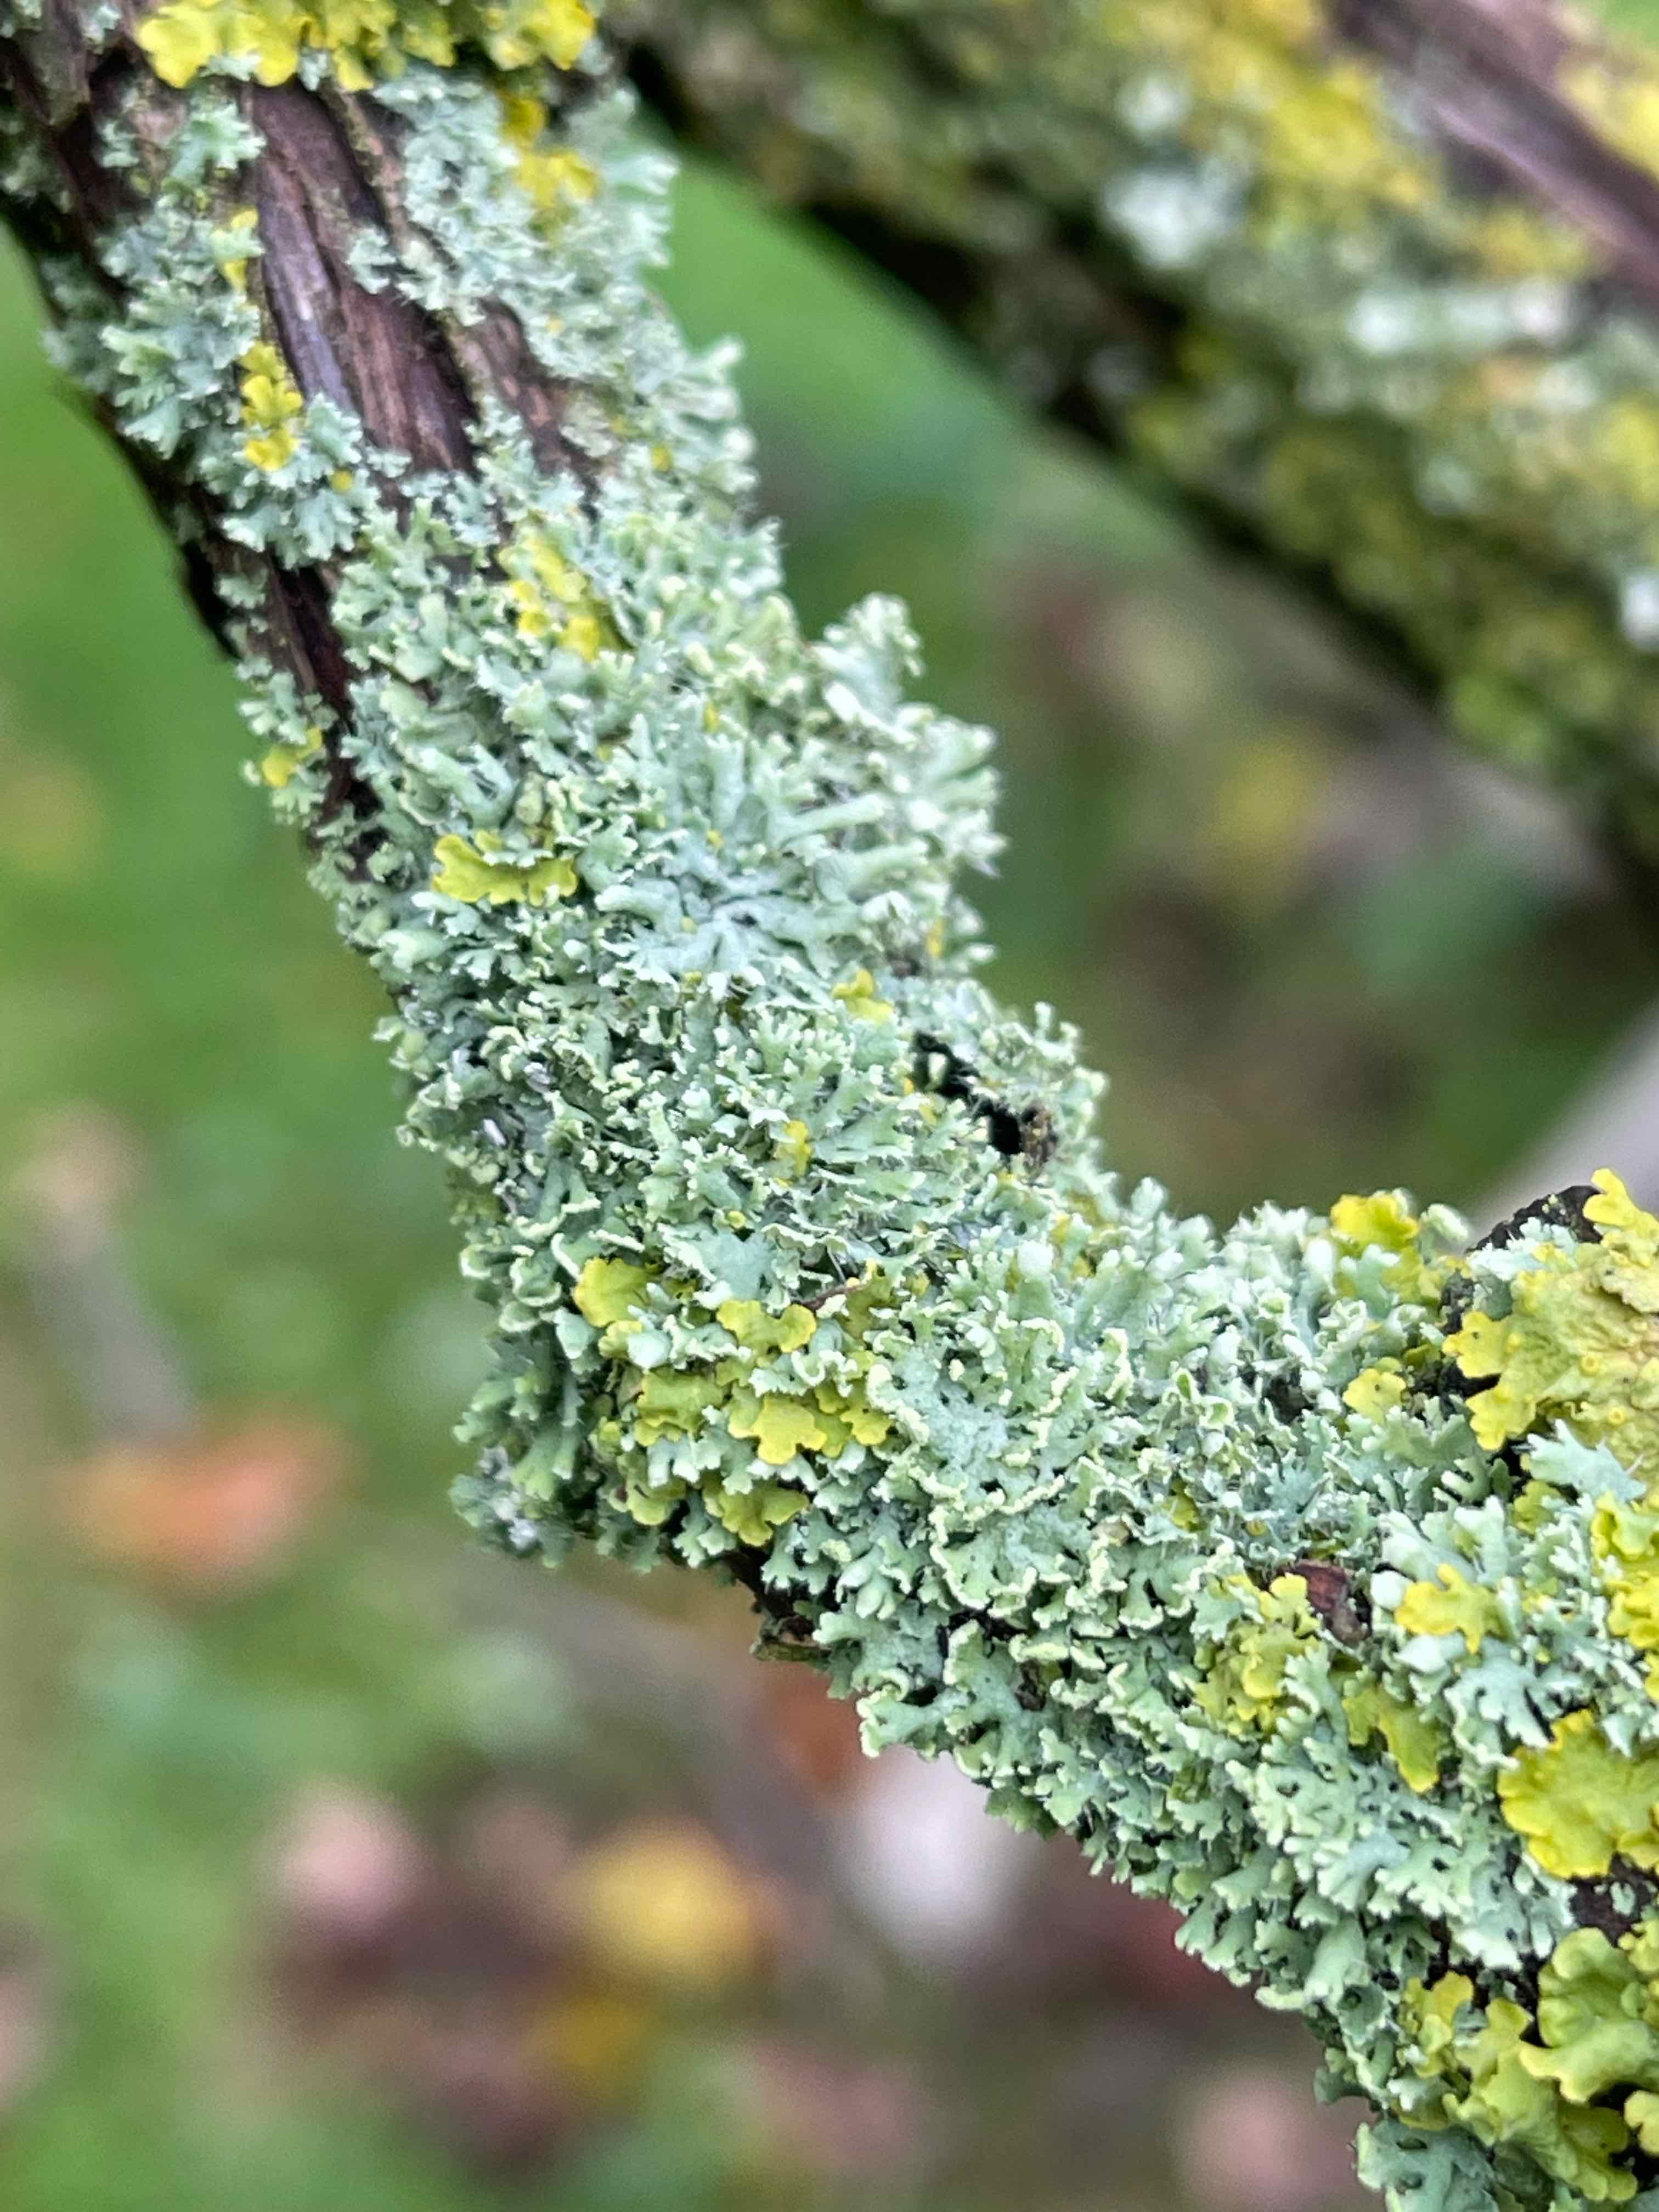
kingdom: Fungi
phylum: Ascomycota
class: Lecanoromycetes
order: Caliciales
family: Physciaceae
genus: Physcia
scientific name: Physcia tenella
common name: spæd rosetlav
